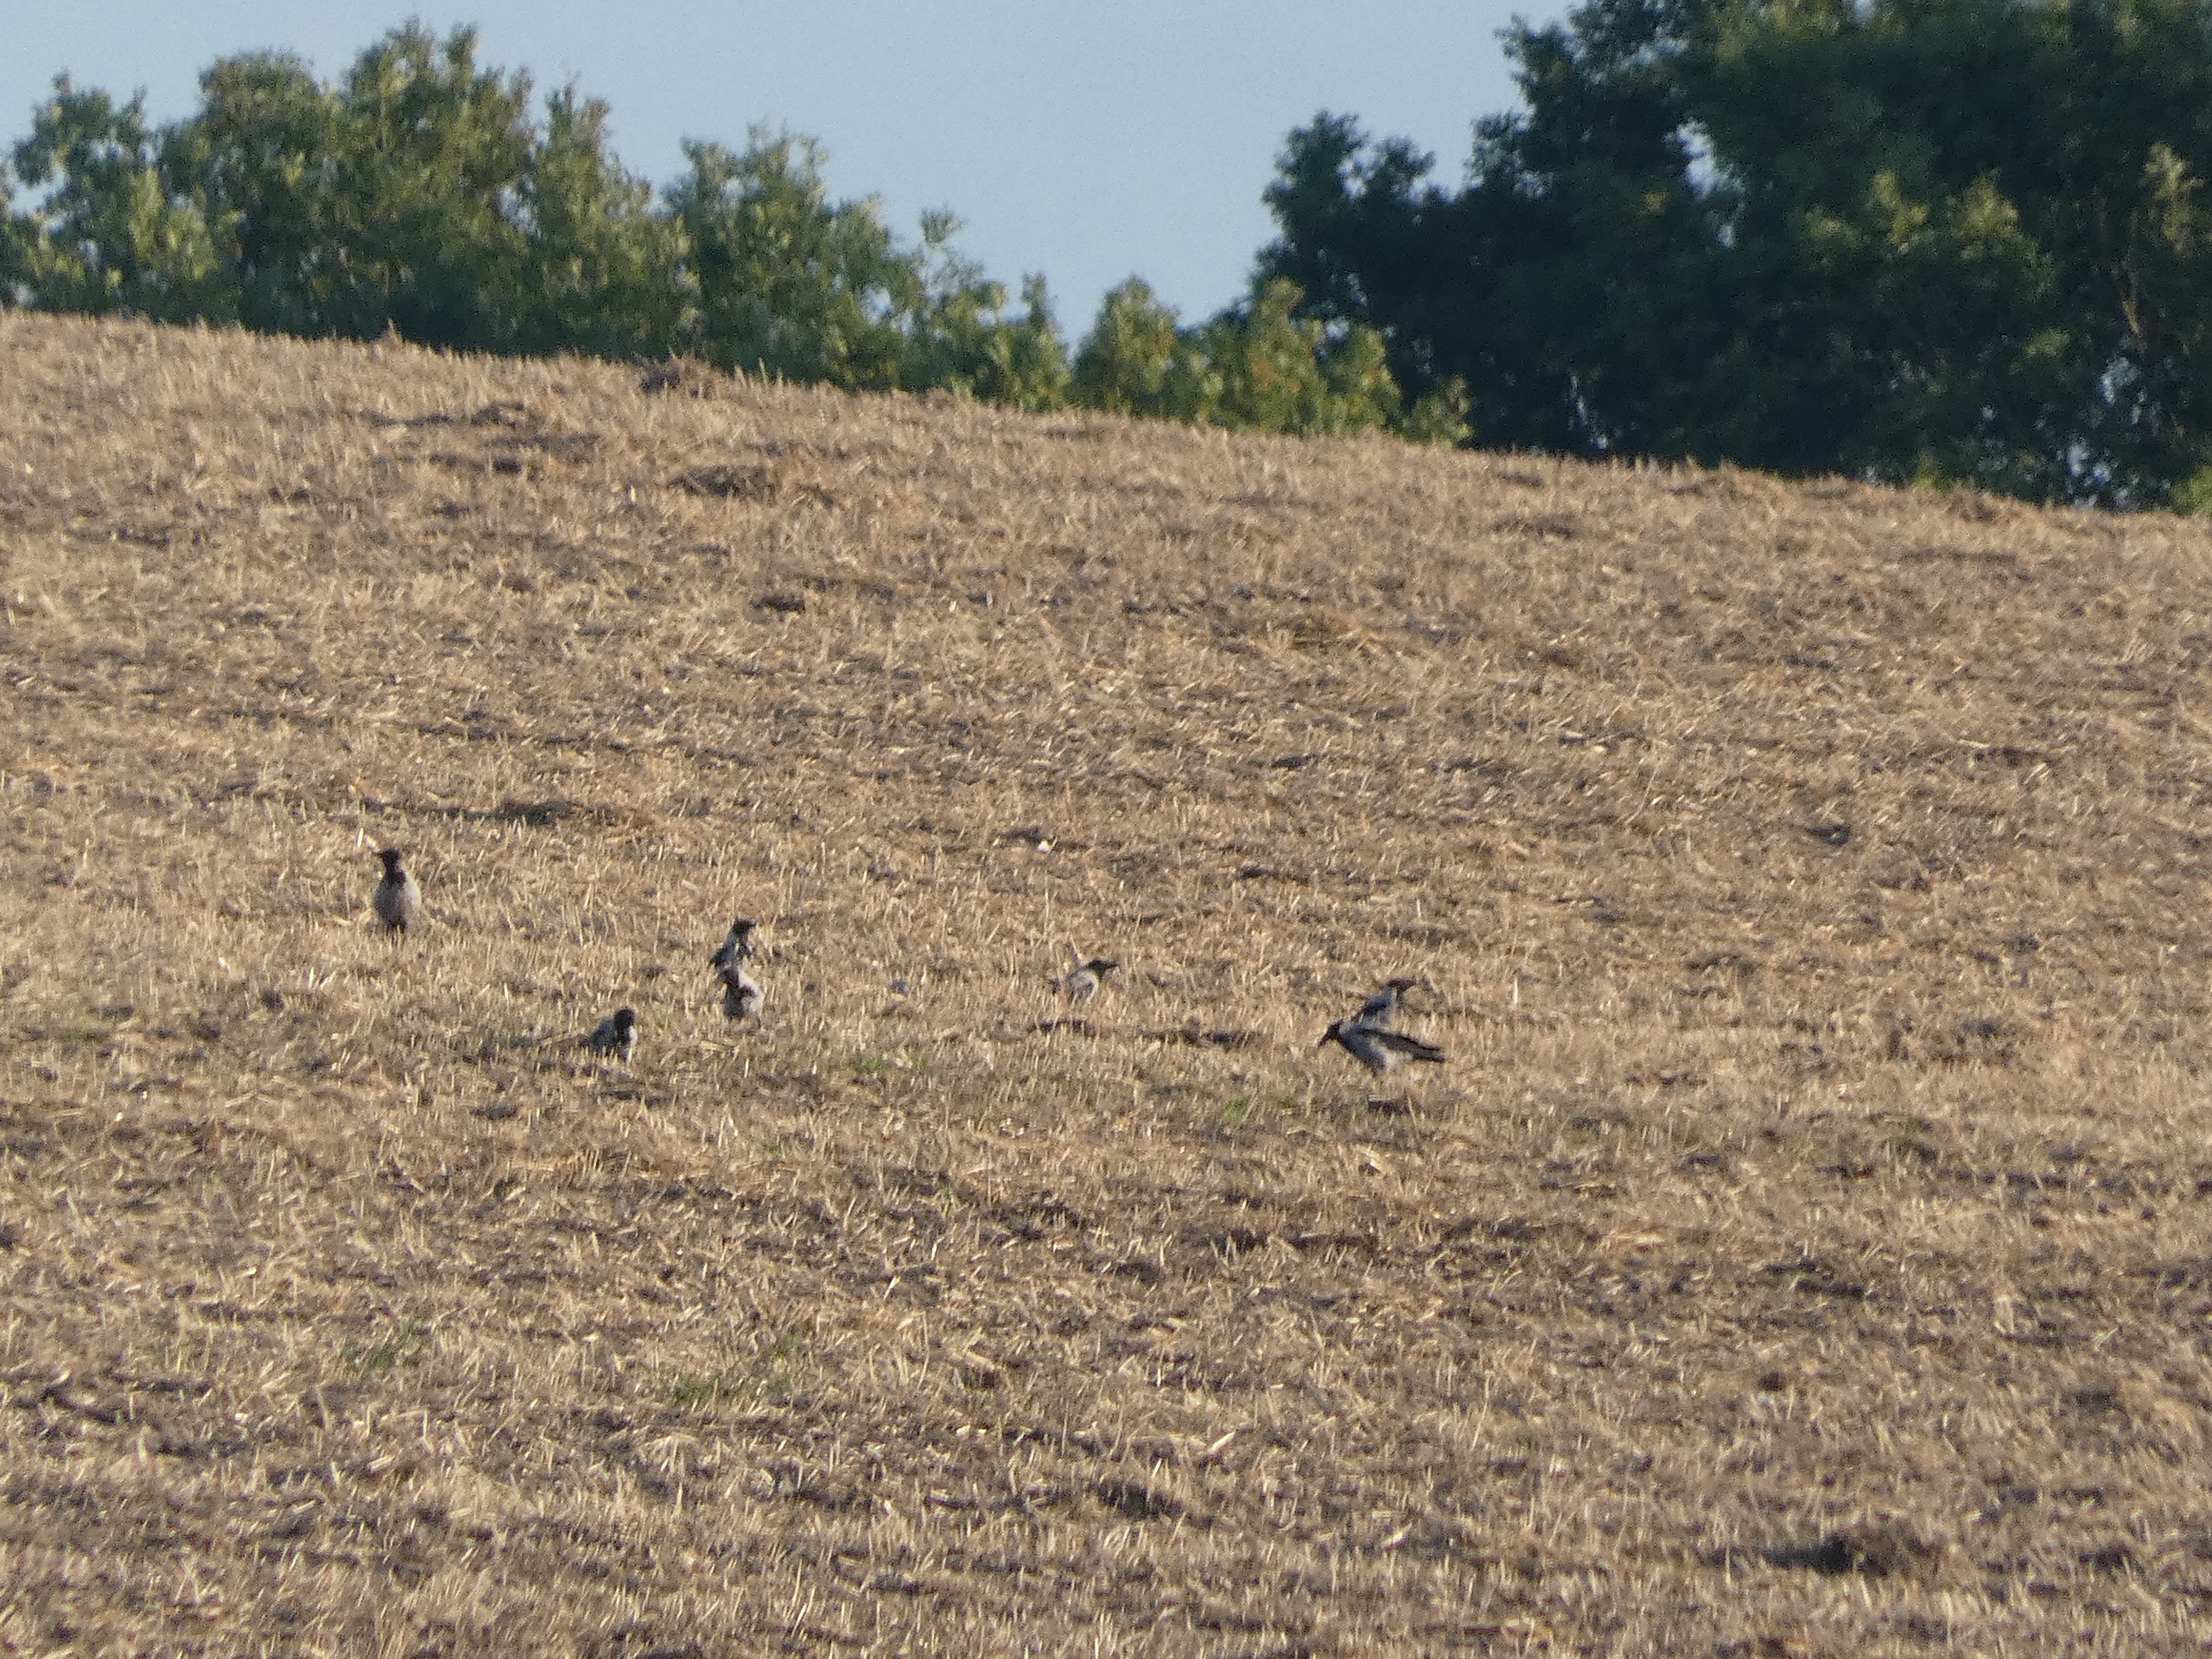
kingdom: Animalia
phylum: Chordata
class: Aves
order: Passeriformes
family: Corvidae
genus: Corvus
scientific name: Corvus cornix
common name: Gråkrage
